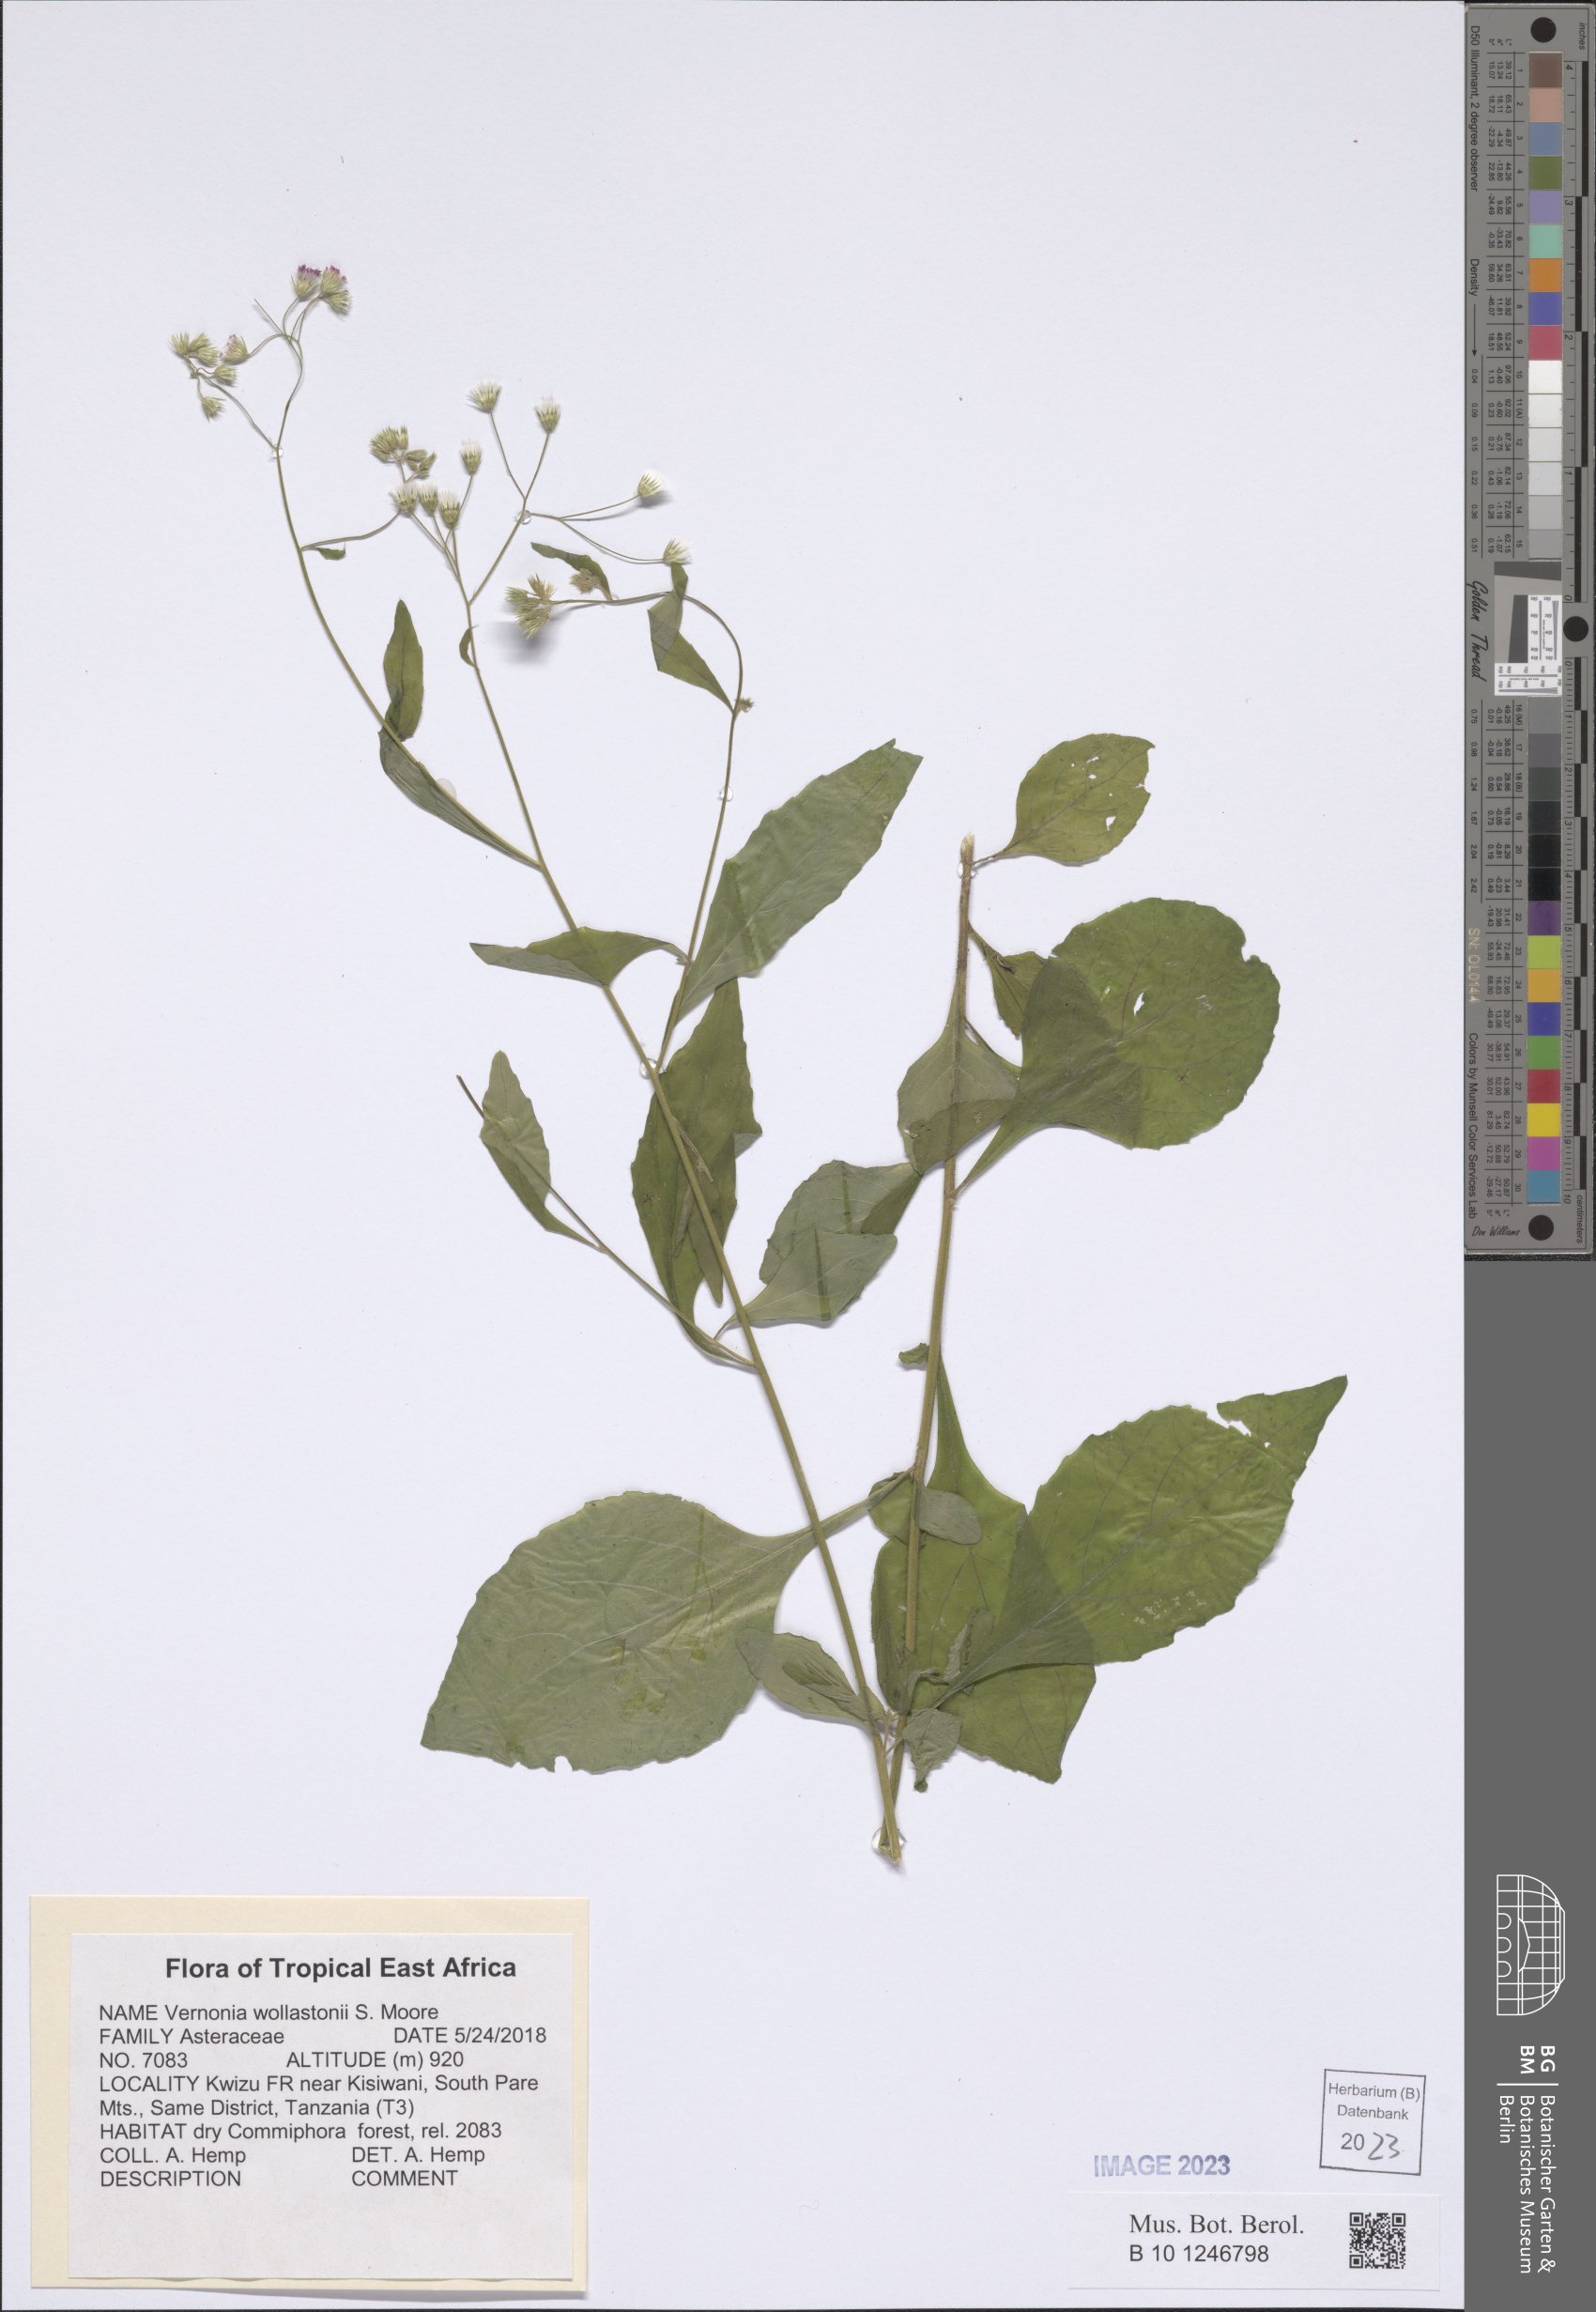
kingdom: Plantae
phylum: Tracheophyta
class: Magnoliopsida
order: Asterales
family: Asteraceae
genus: Cyanthillium
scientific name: Cyanthillium wollastonii
